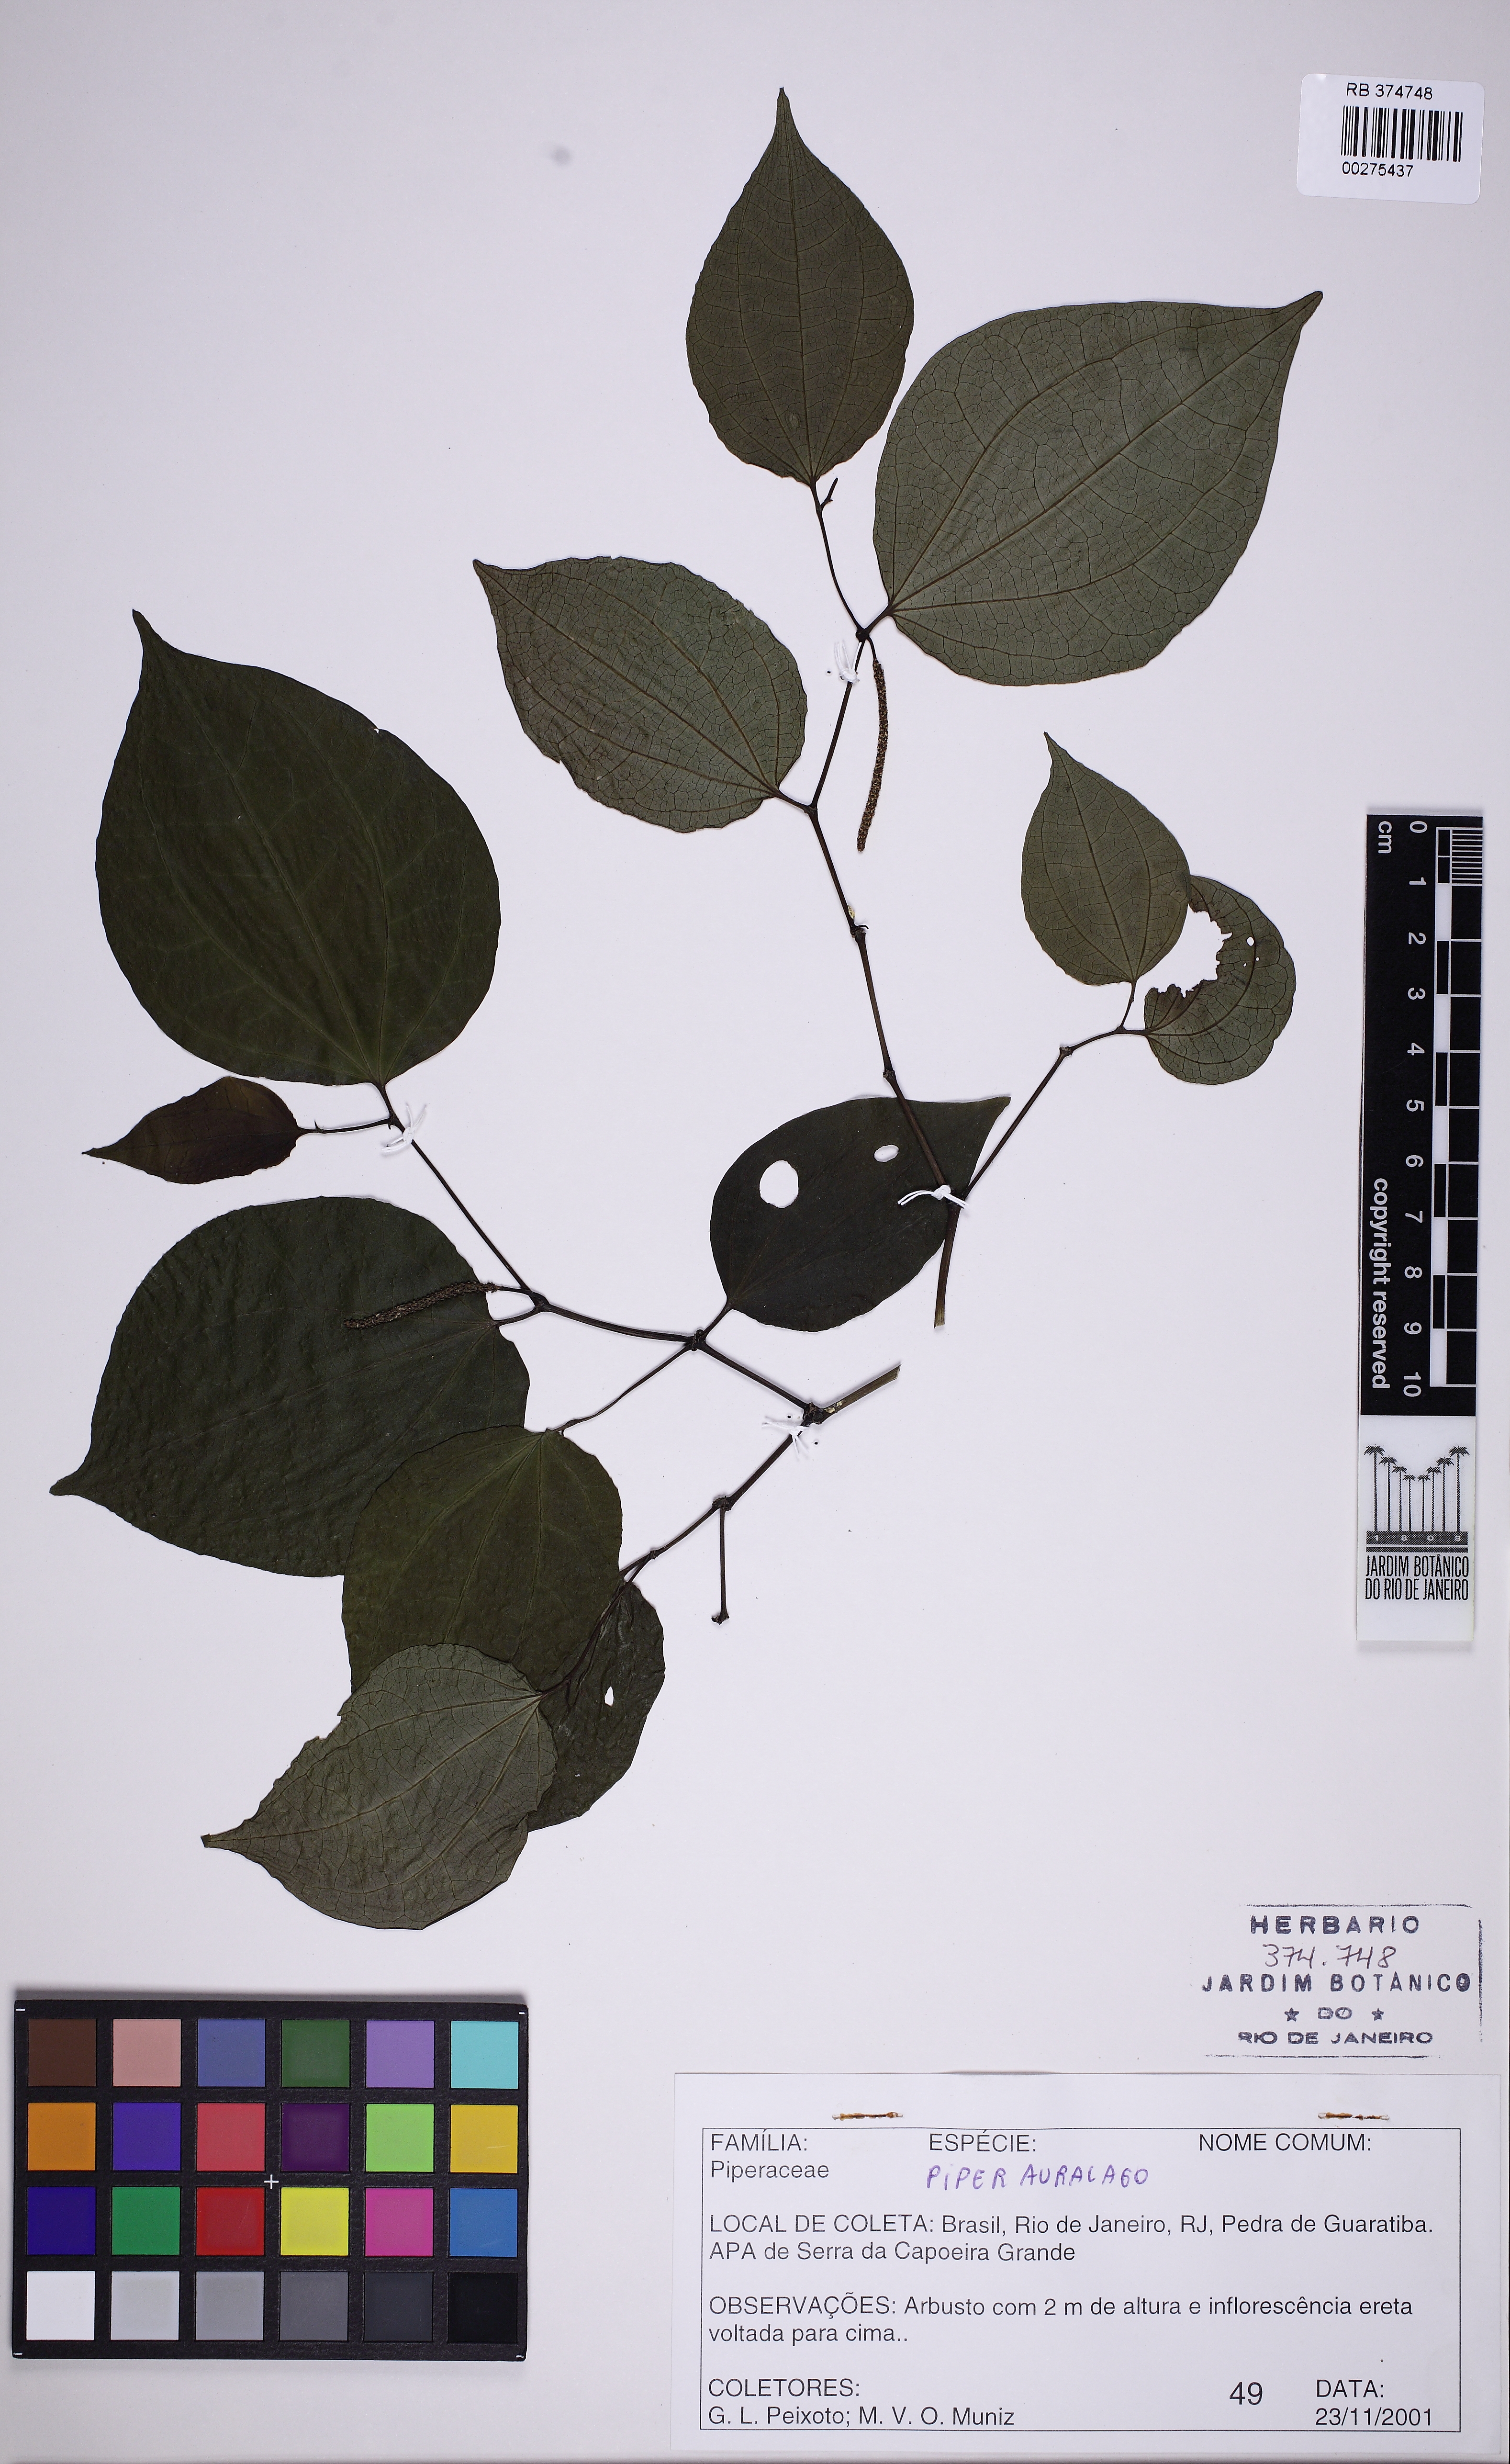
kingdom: Plantae
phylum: Tracheophyta
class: Magnoliopsida
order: Piperales
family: Piperaceae
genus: Piper
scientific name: Piper amalago
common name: Pepper-elder
